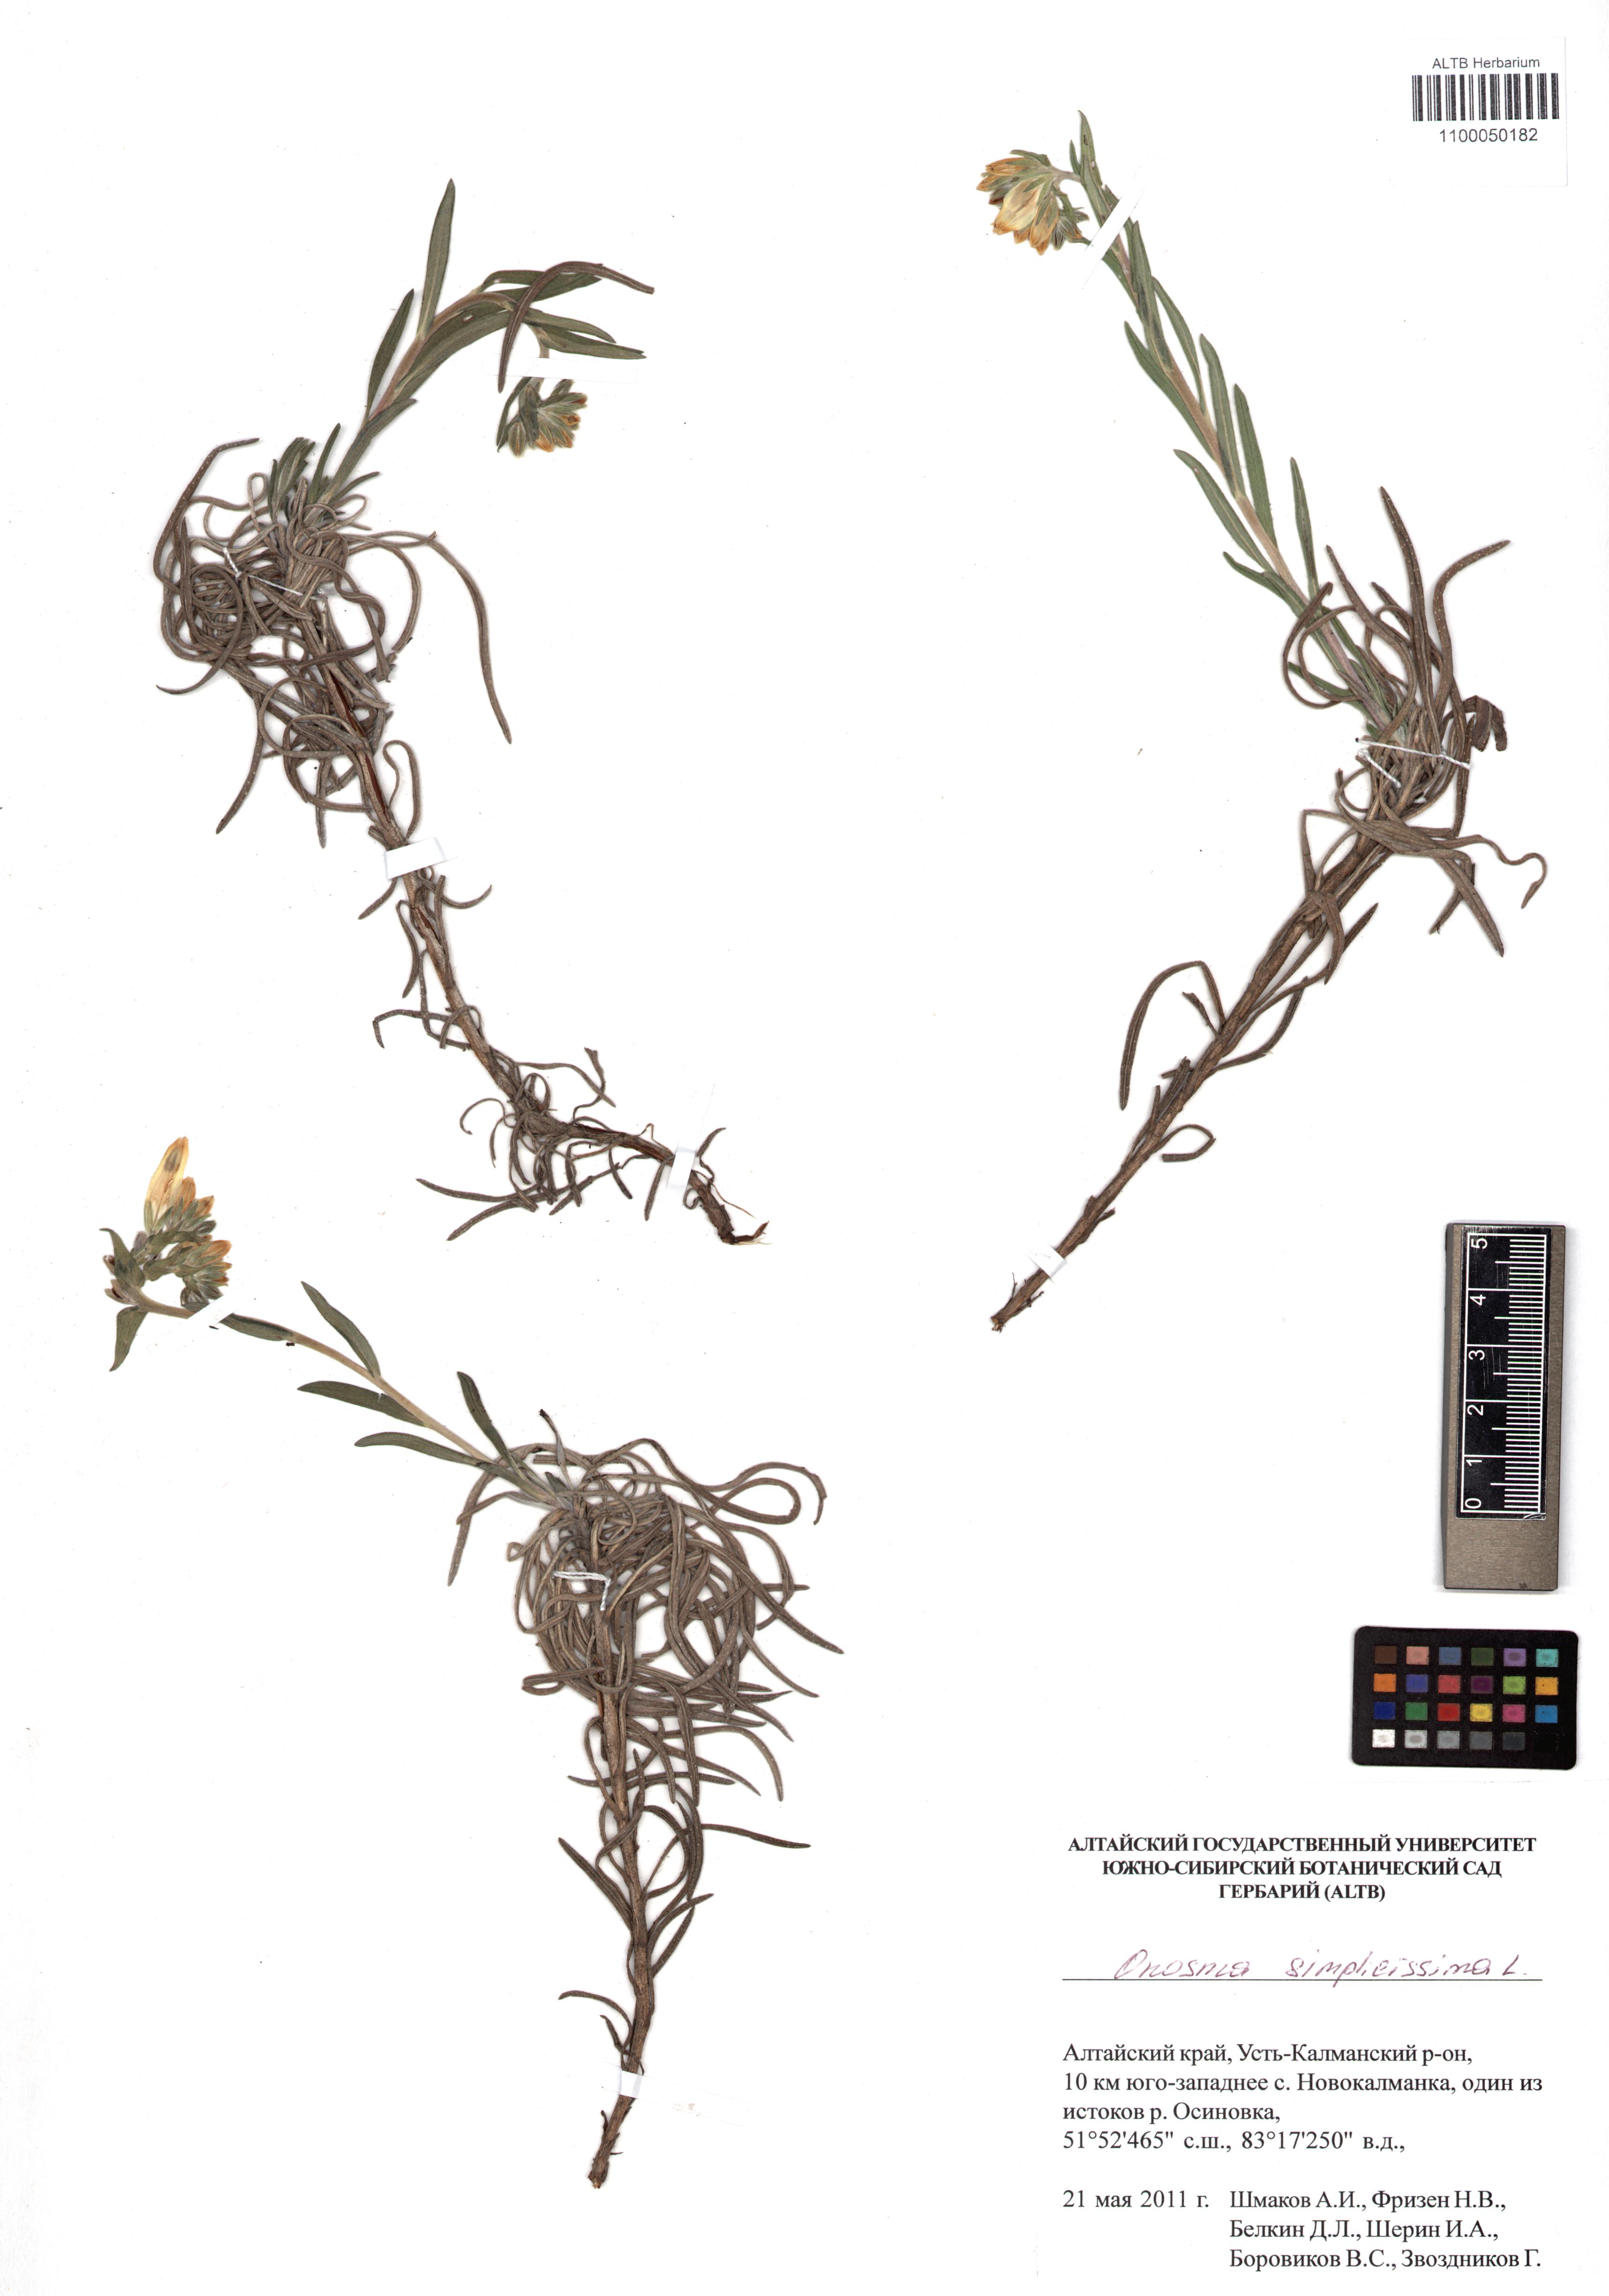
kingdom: Plantae
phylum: Tracheophyta
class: Magnoliopsida
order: Boraginales
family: Boraginaceae
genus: Onosma
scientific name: Onosma simplicissima
